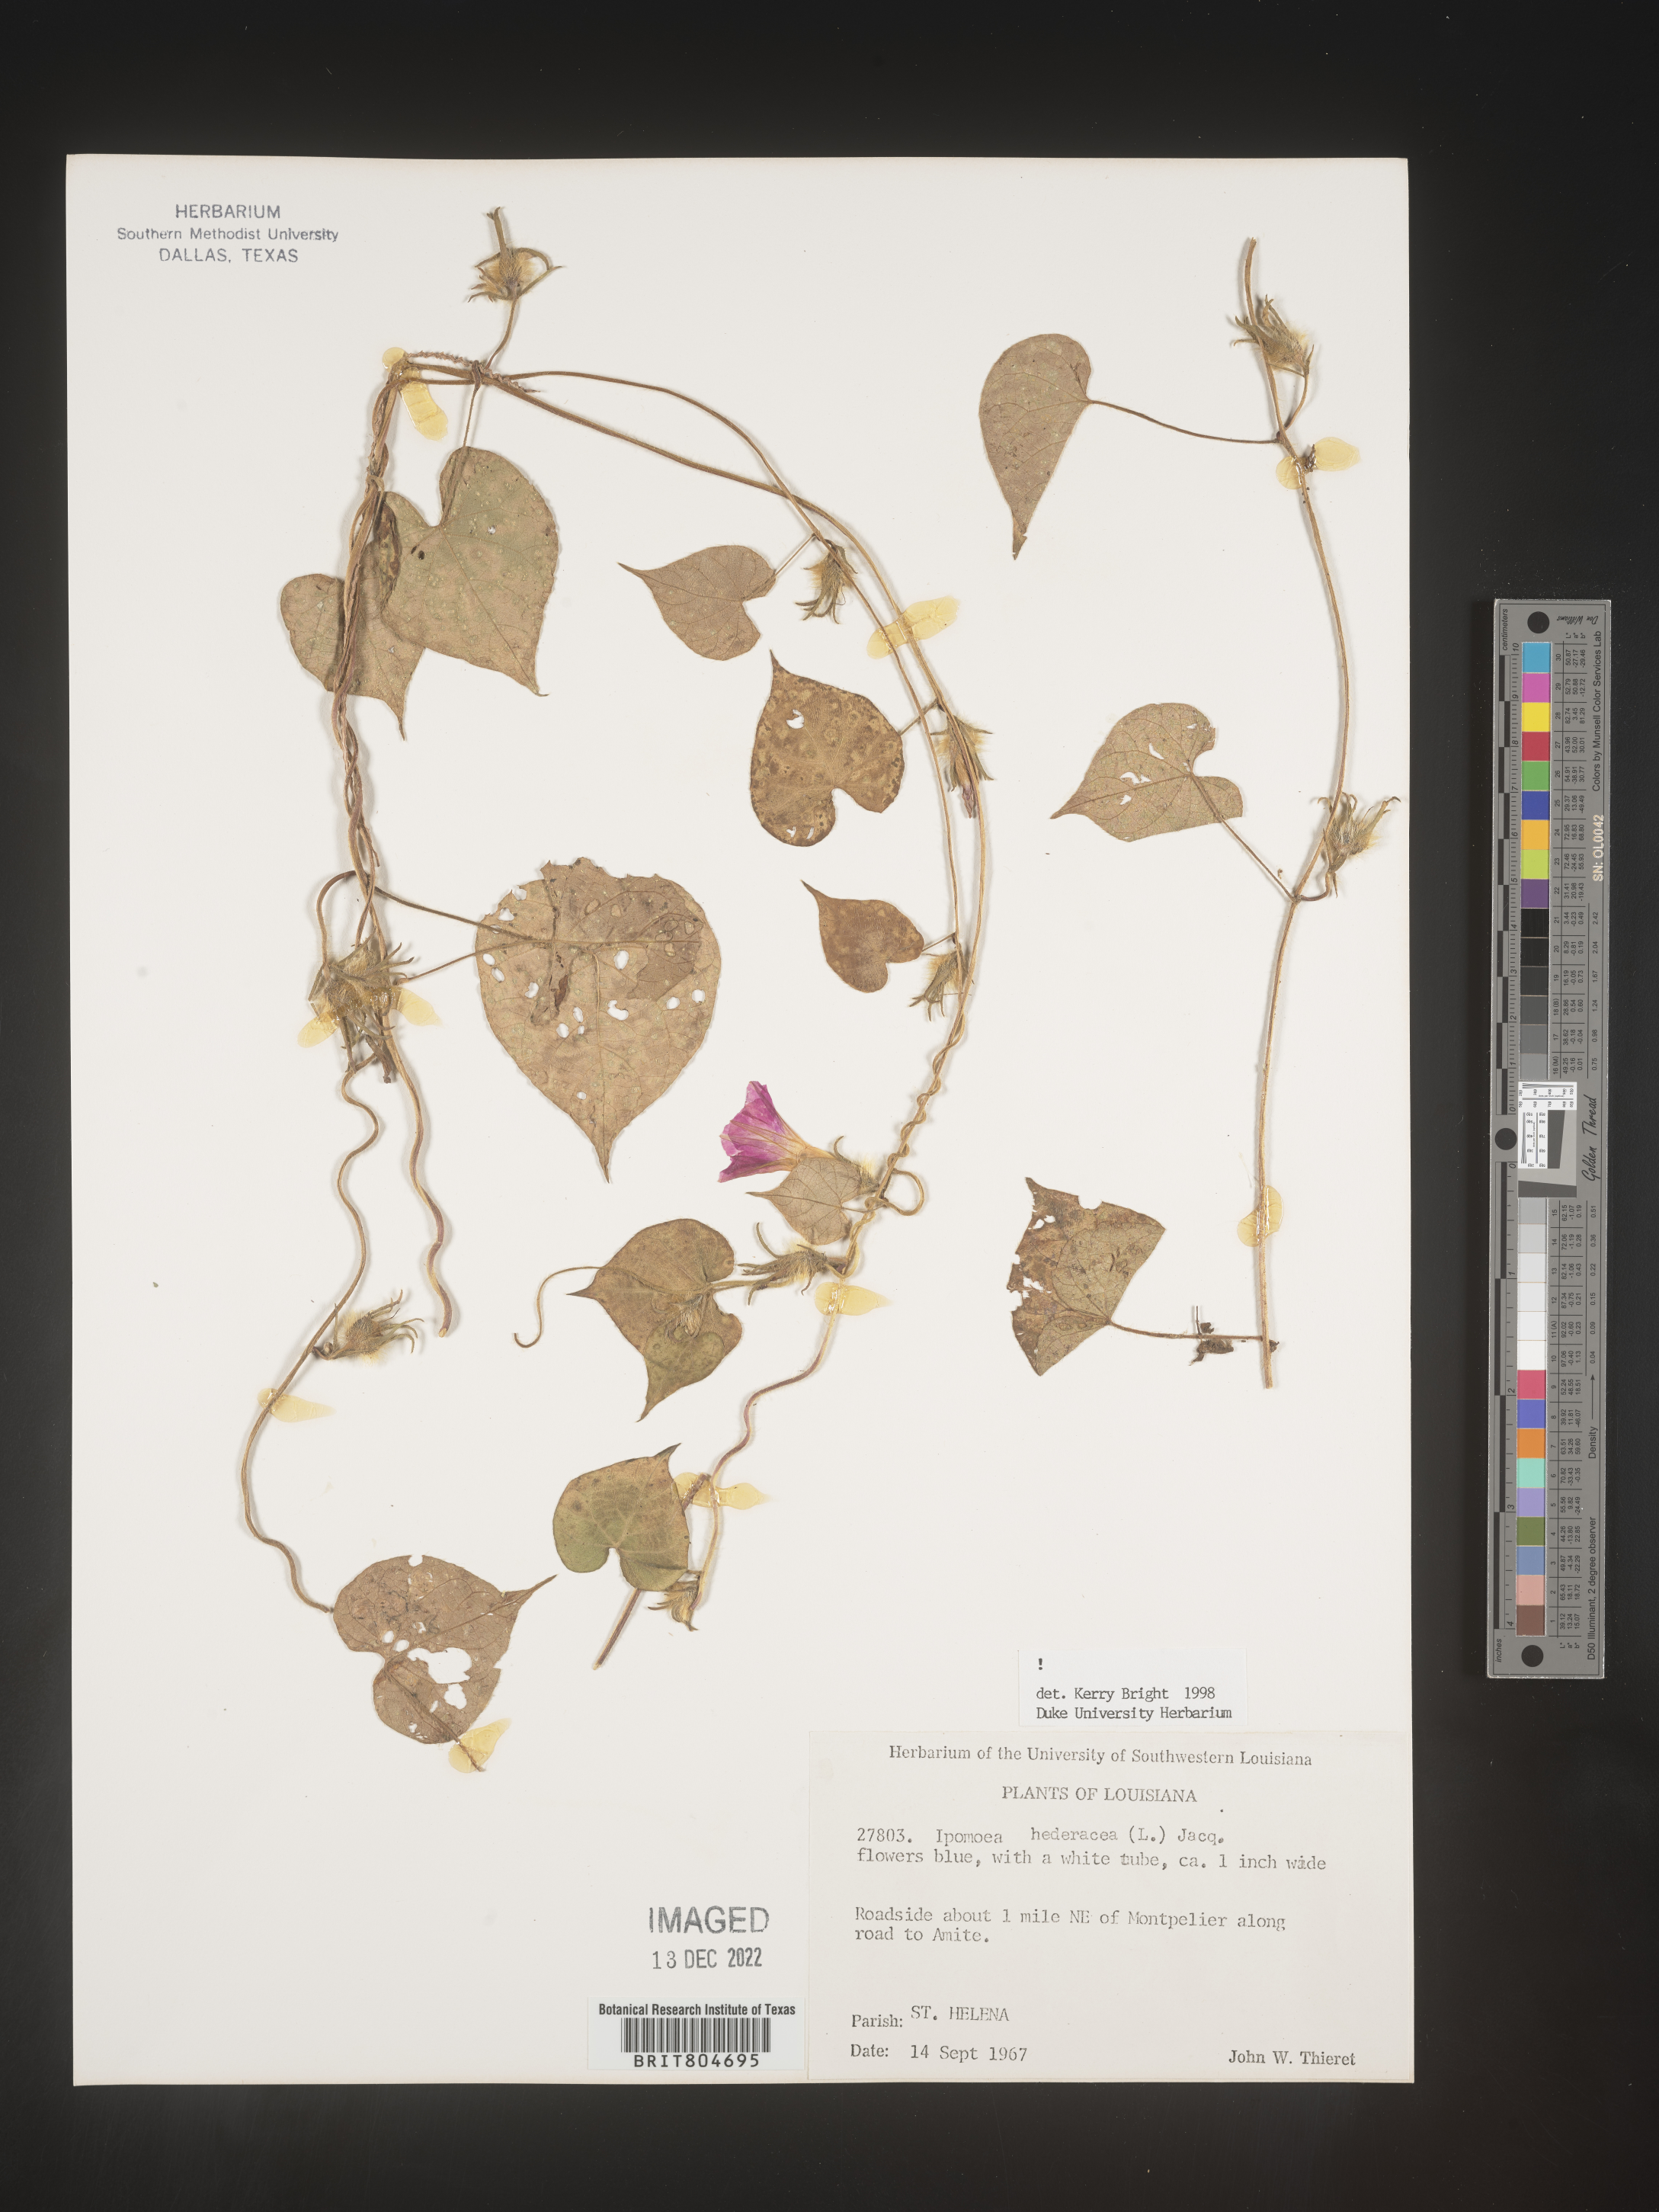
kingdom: Plantae
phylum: Tracheophyta
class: Magnoliopsida
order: Solanales
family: Convolvulaceae
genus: Ipomoea
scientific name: Ipomoea hederacea
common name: Ivy-leaved morning-glory
